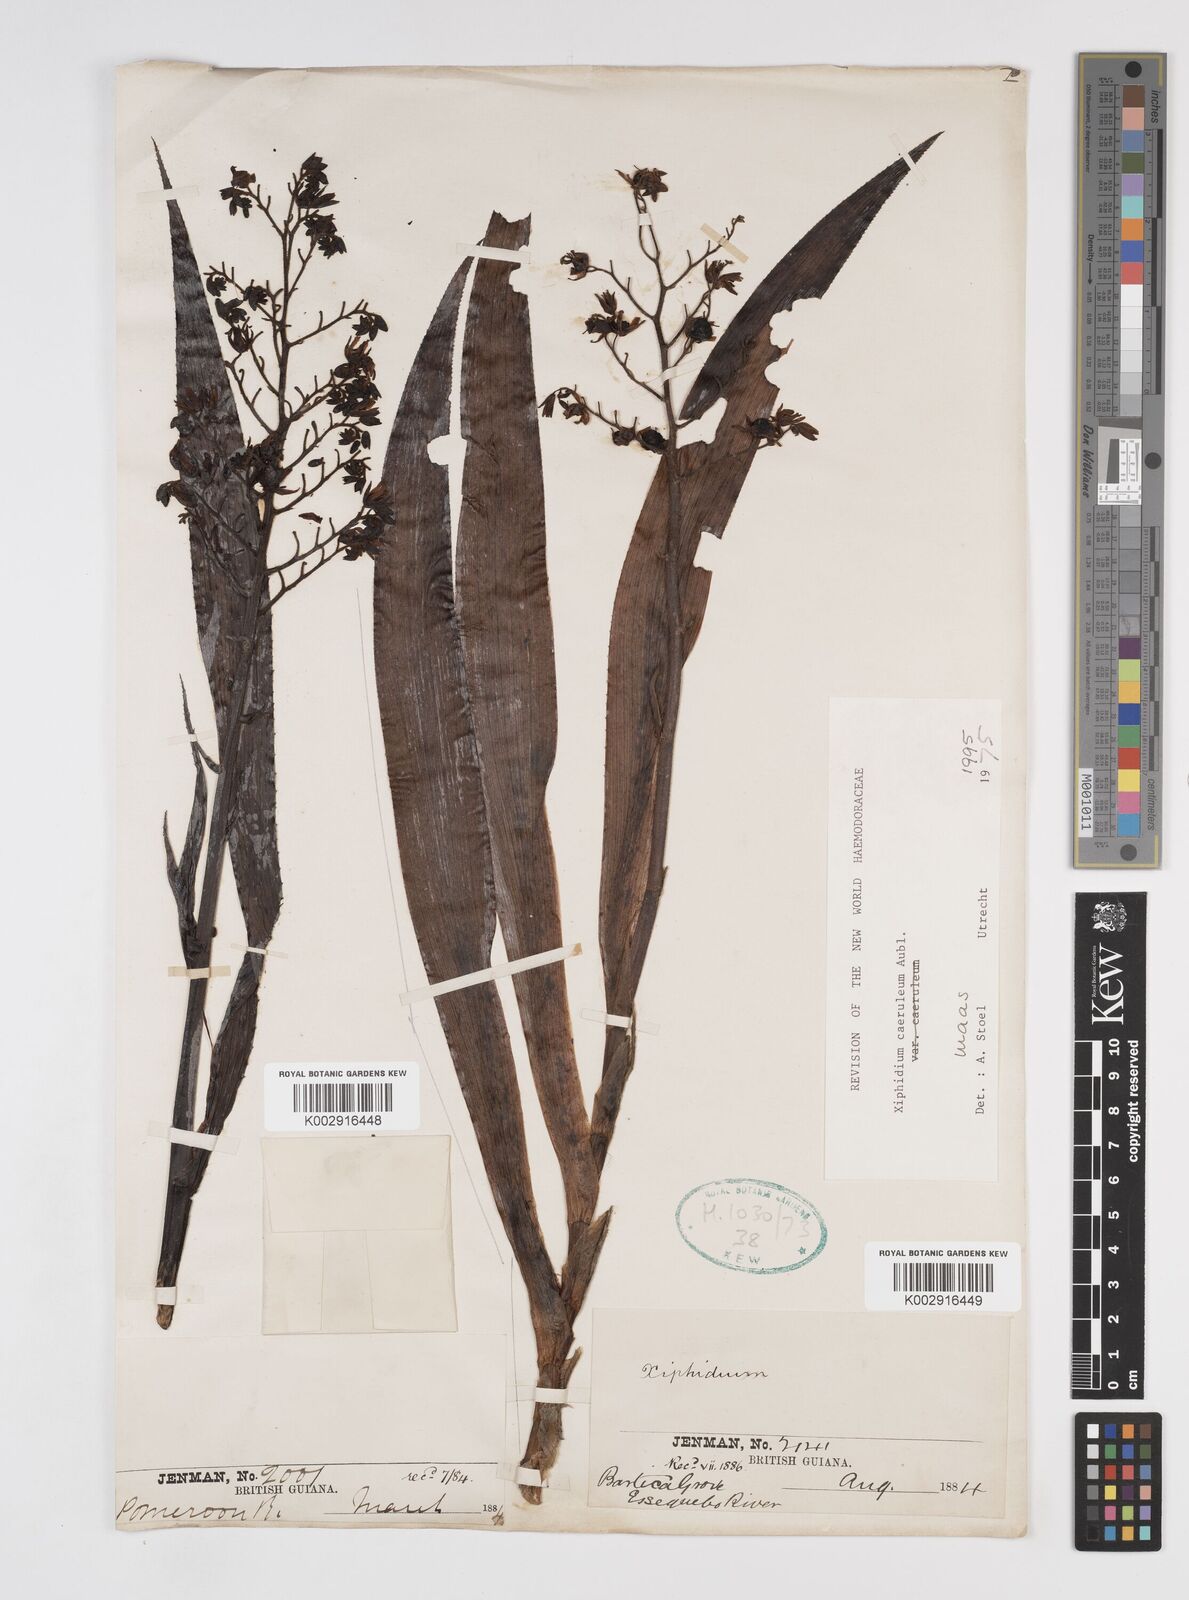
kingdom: Plantae
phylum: Tracheophyta
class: Liliopsida
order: Commelinales
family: Haemodoraceae
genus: Xiphidium
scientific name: Xiphidium caeruleum
